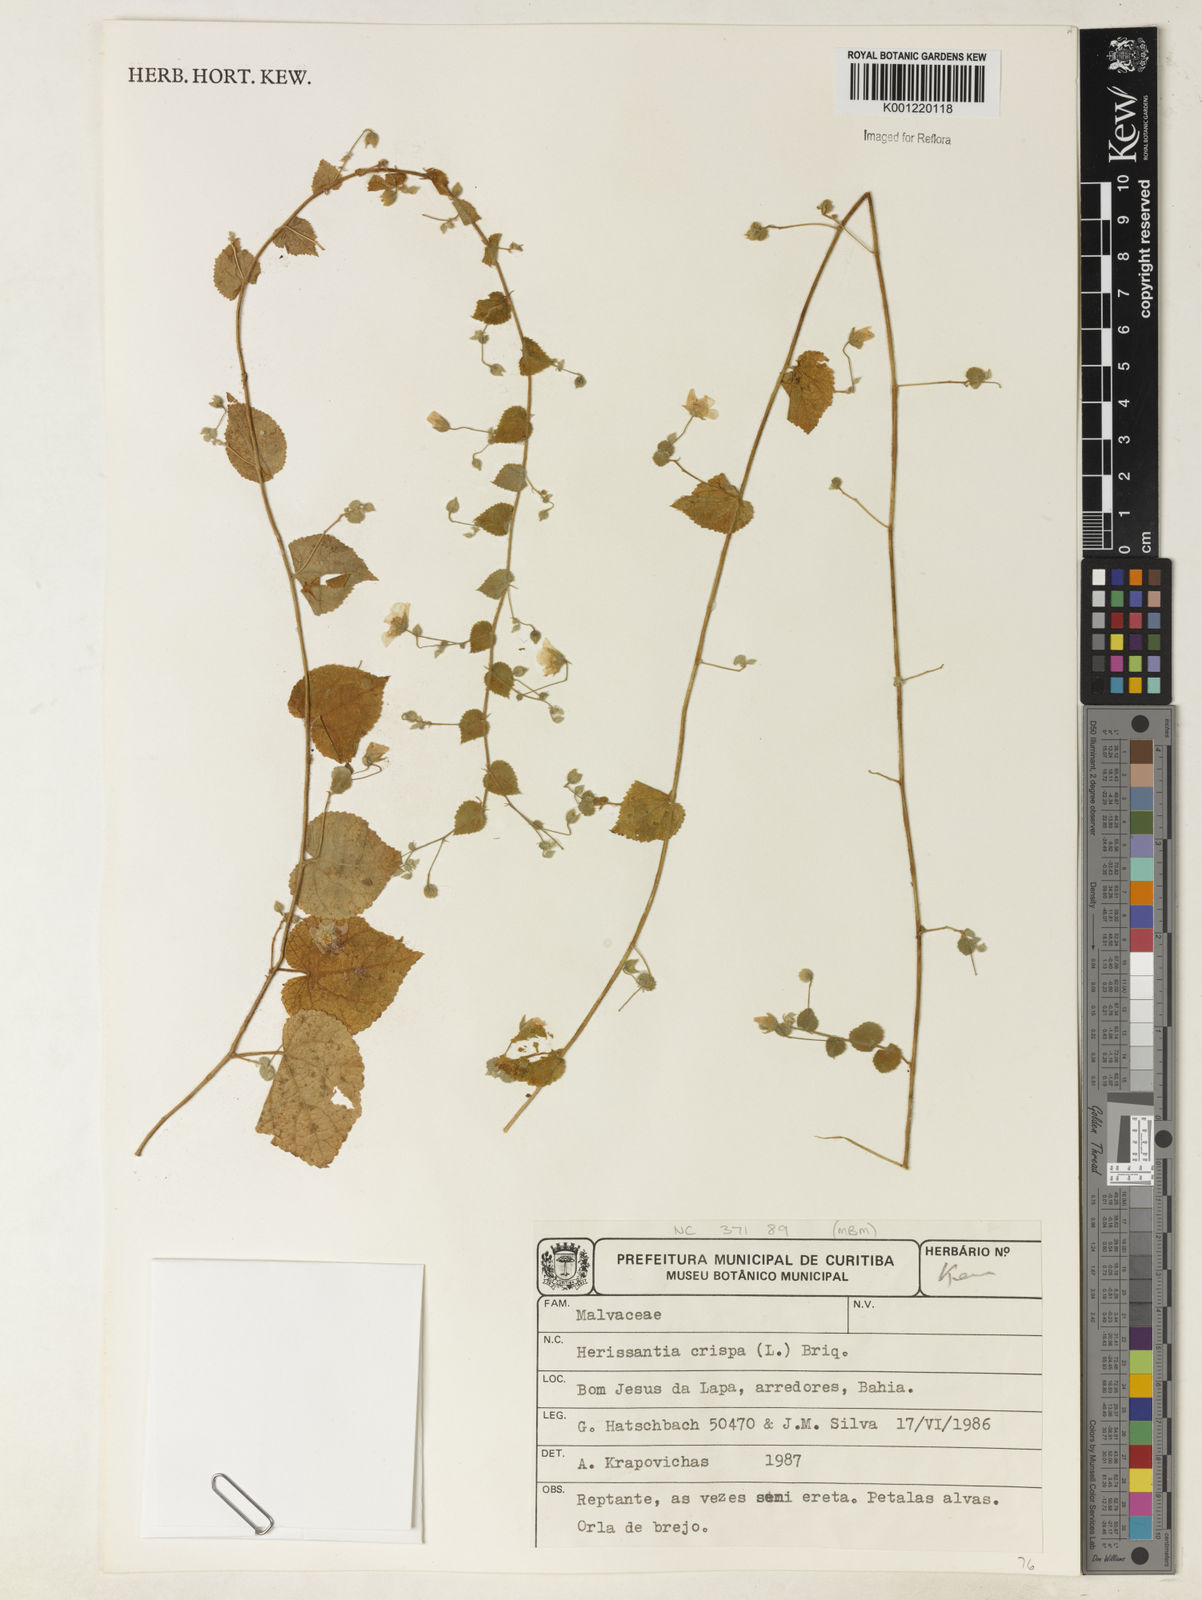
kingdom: Plantae
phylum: Tracheophyta
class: Magnoliopsida
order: Malvales
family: Malvaceae
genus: Herissantia
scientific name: Herissantia crispa
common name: Bladdermallow
